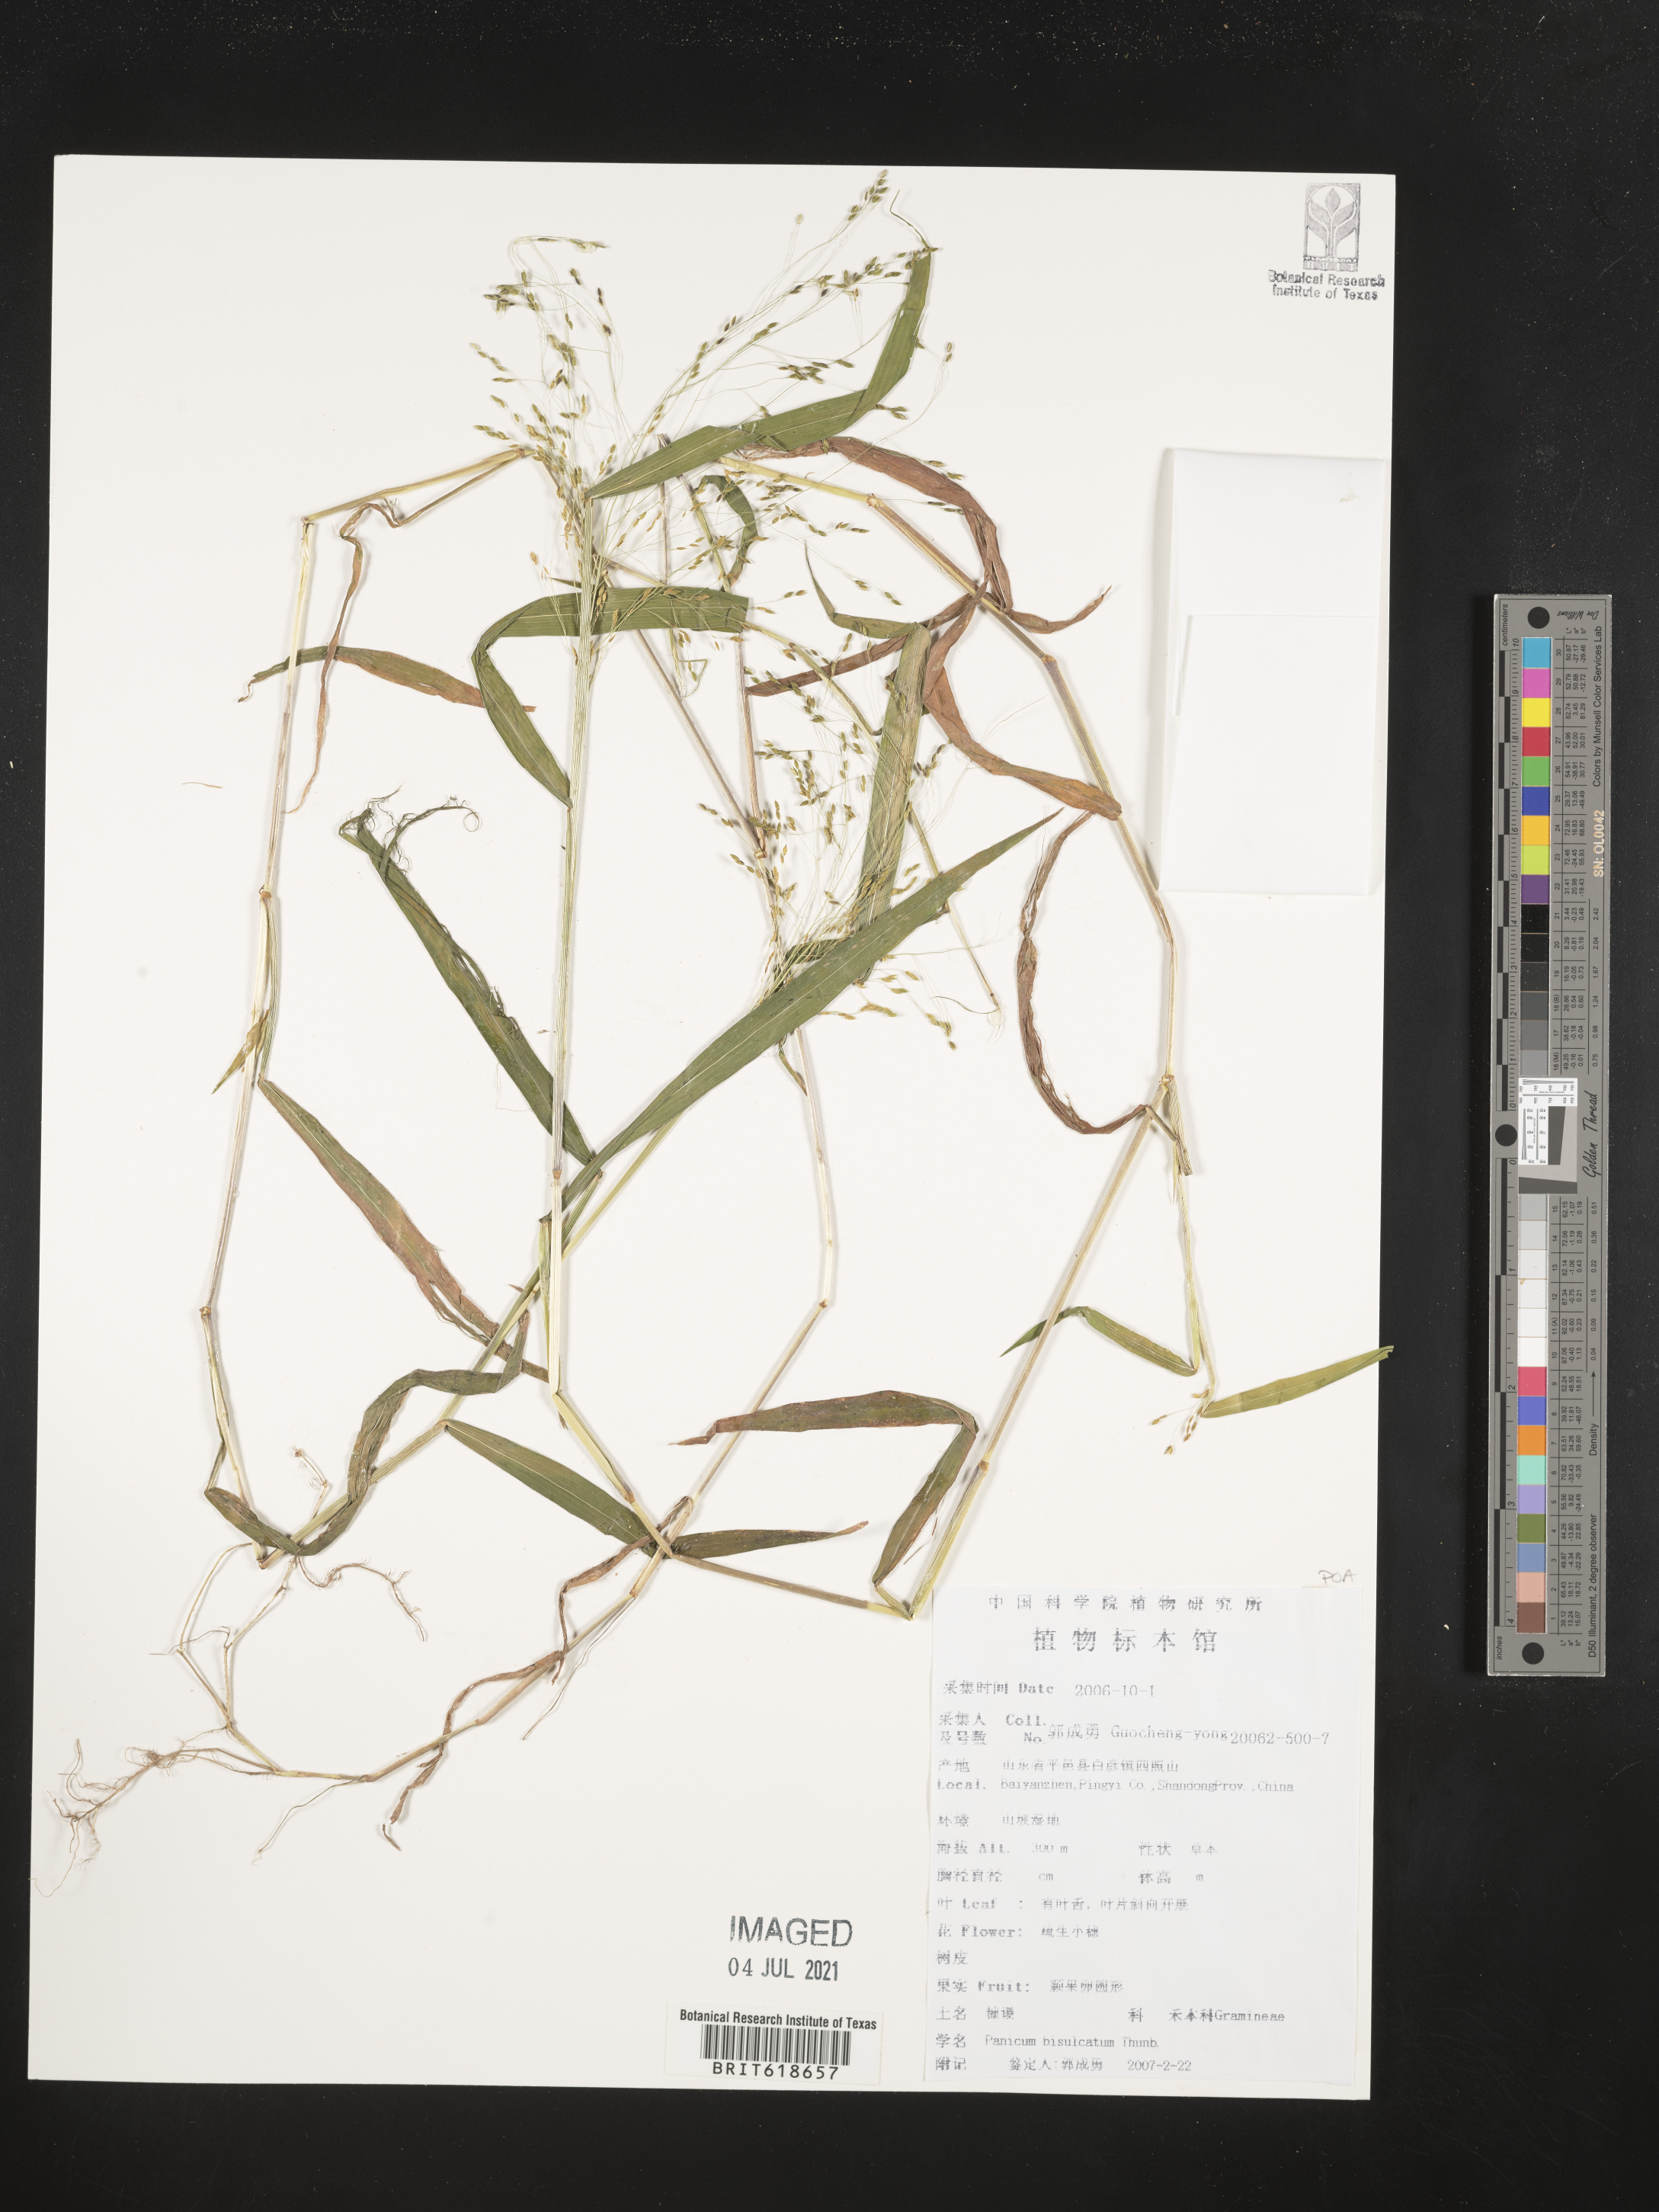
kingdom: Plantae
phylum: Tracheophyta
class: Liliopsida
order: Poales
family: Poaceae
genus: Panicum
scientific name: Panicum bisulcatum
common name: Japanese panicgrass
